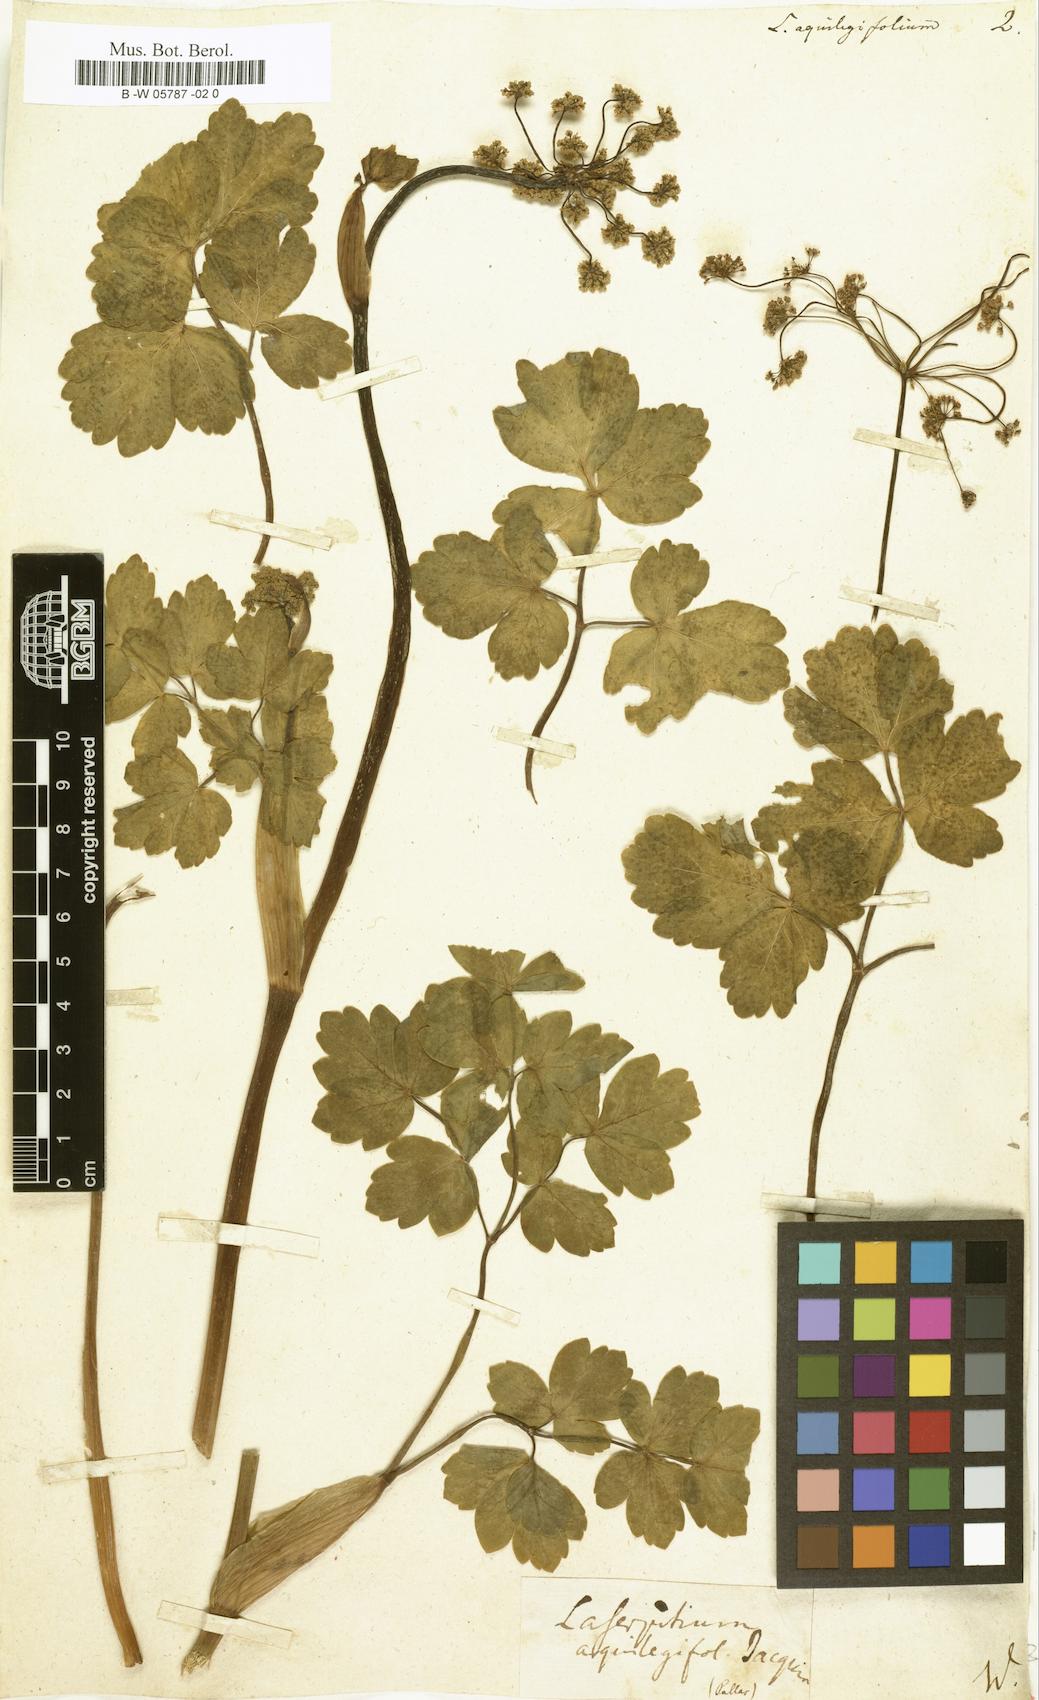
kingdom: Plantae
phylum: Tracheophyta
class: Magnoliopsida
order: Apiales
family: Apiaceae
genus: Laserpitium
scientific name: Laserpitium aquilegifolium
